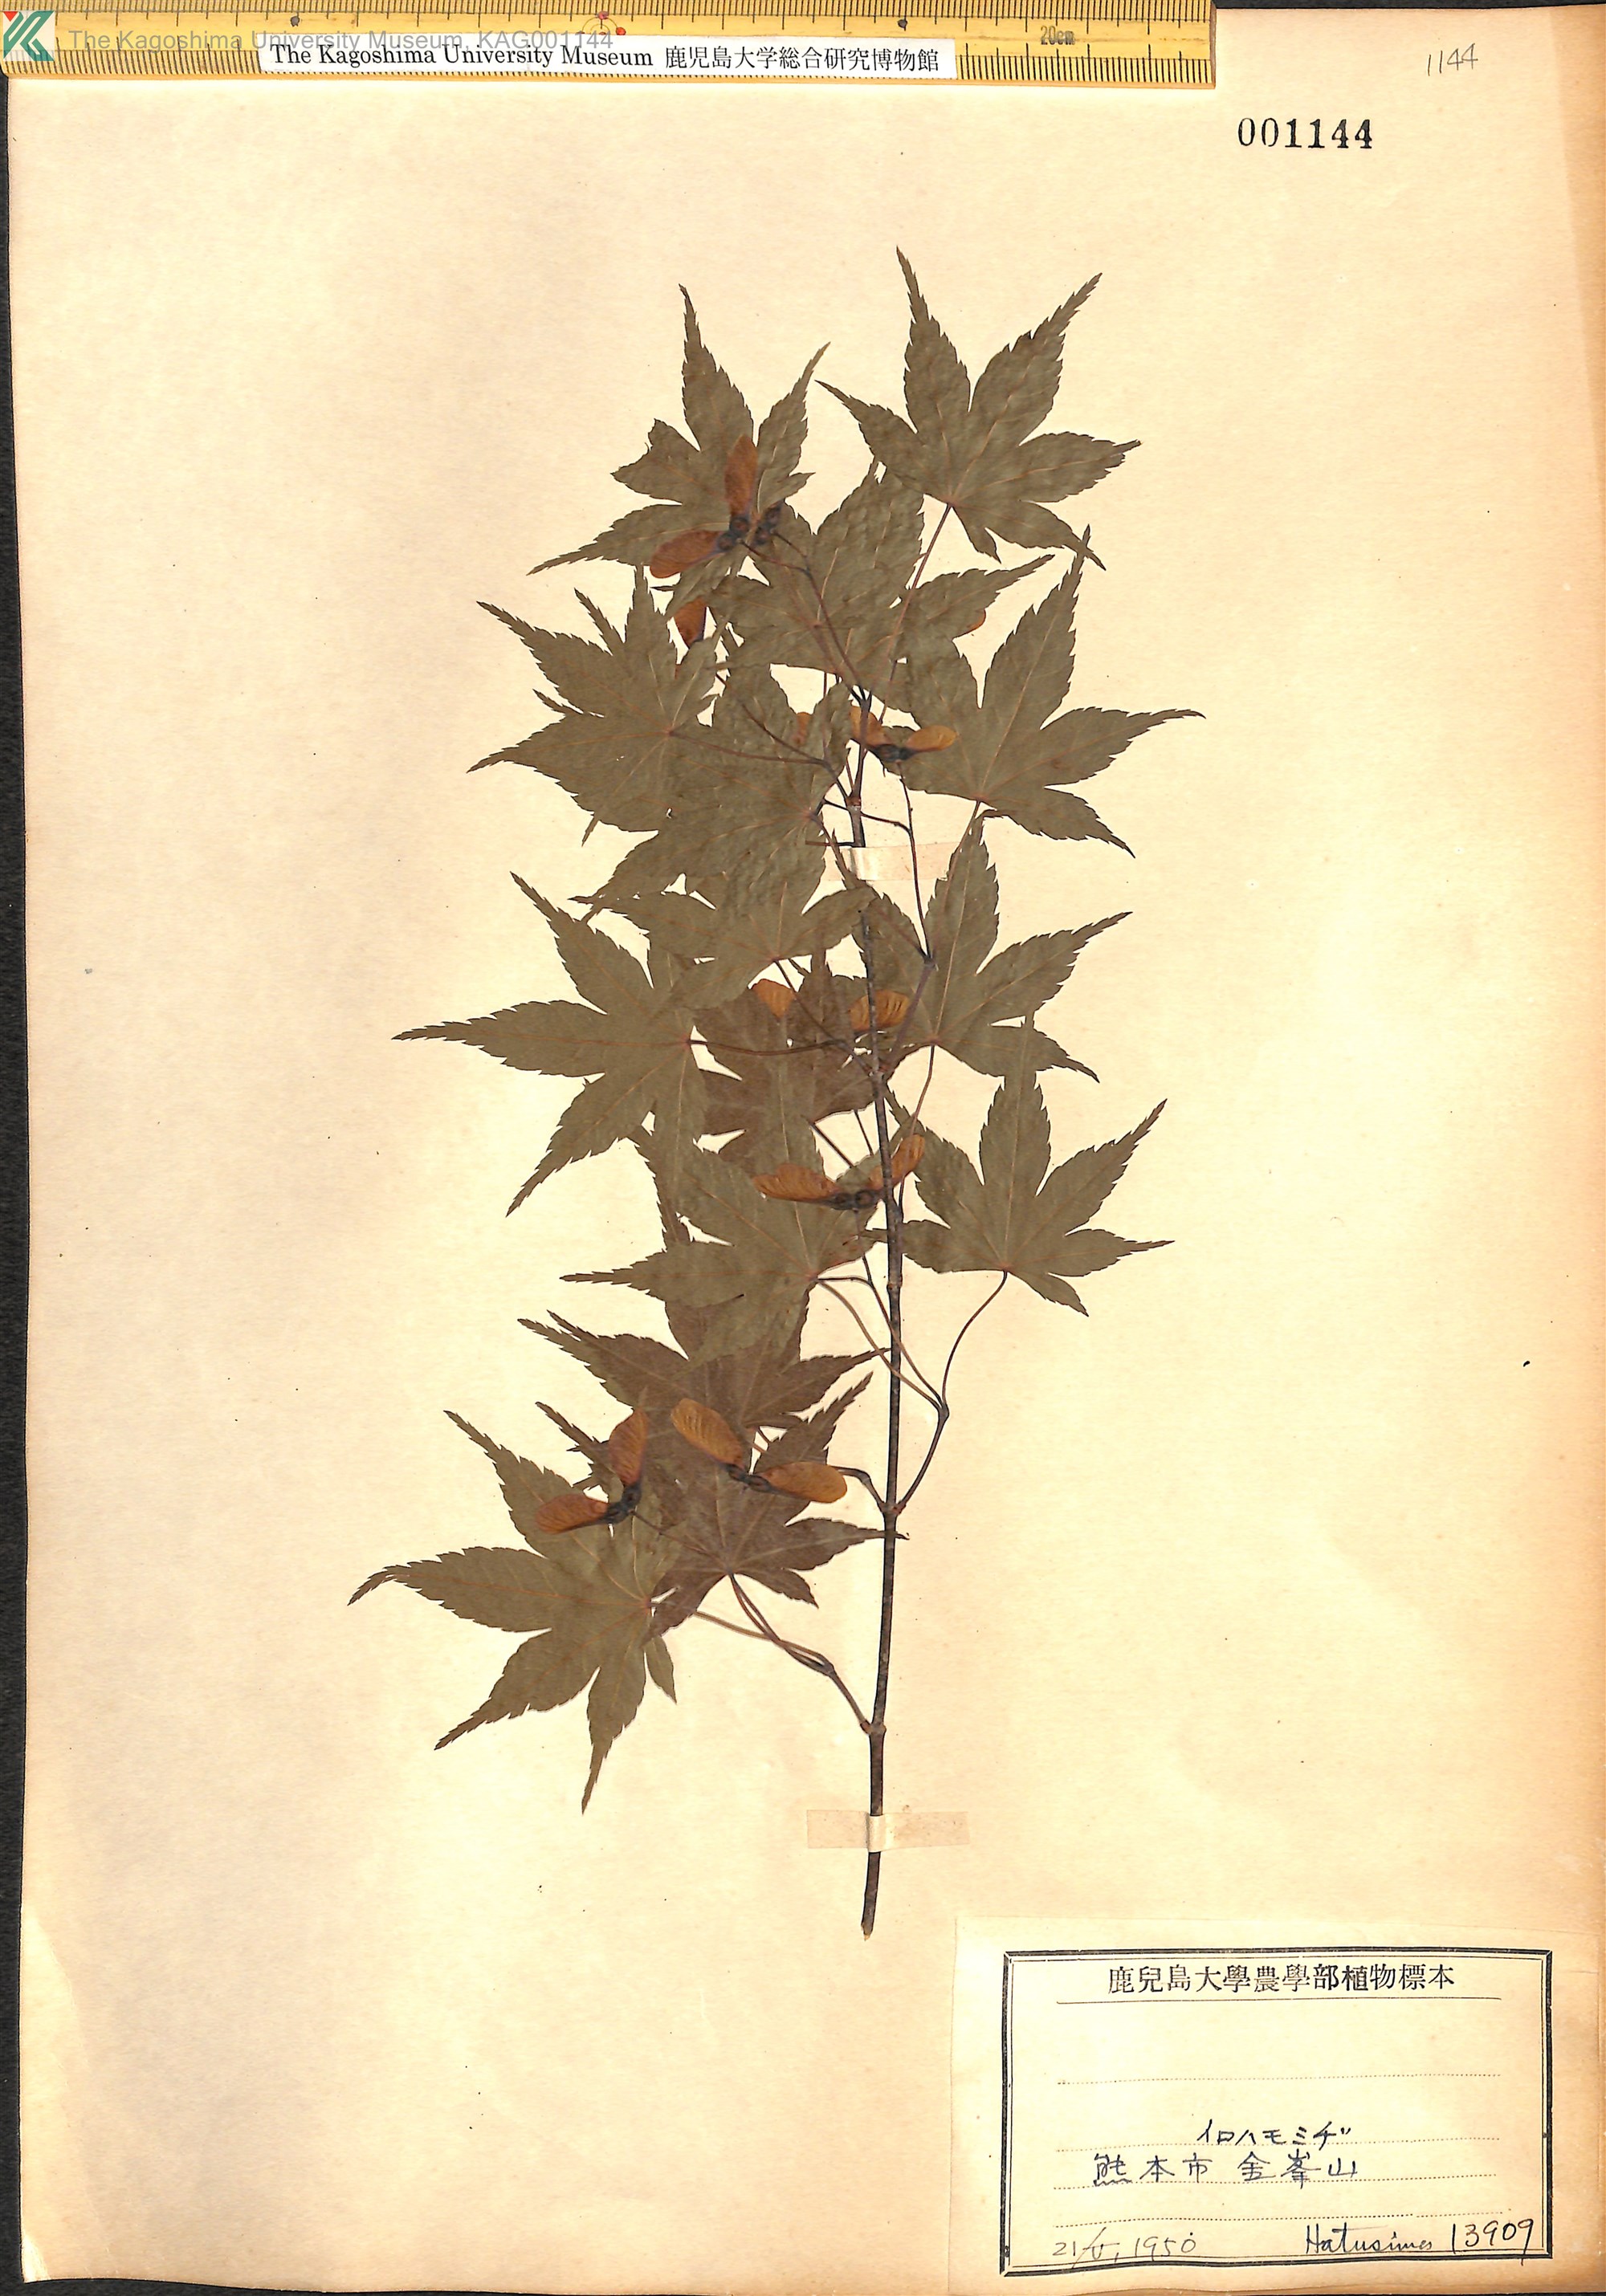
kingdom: Plantae
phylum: Tracheophyta
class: Magnoliopsida
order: Sapindales
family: Sapindaceae
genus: Acer
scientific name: Acer palmatum
